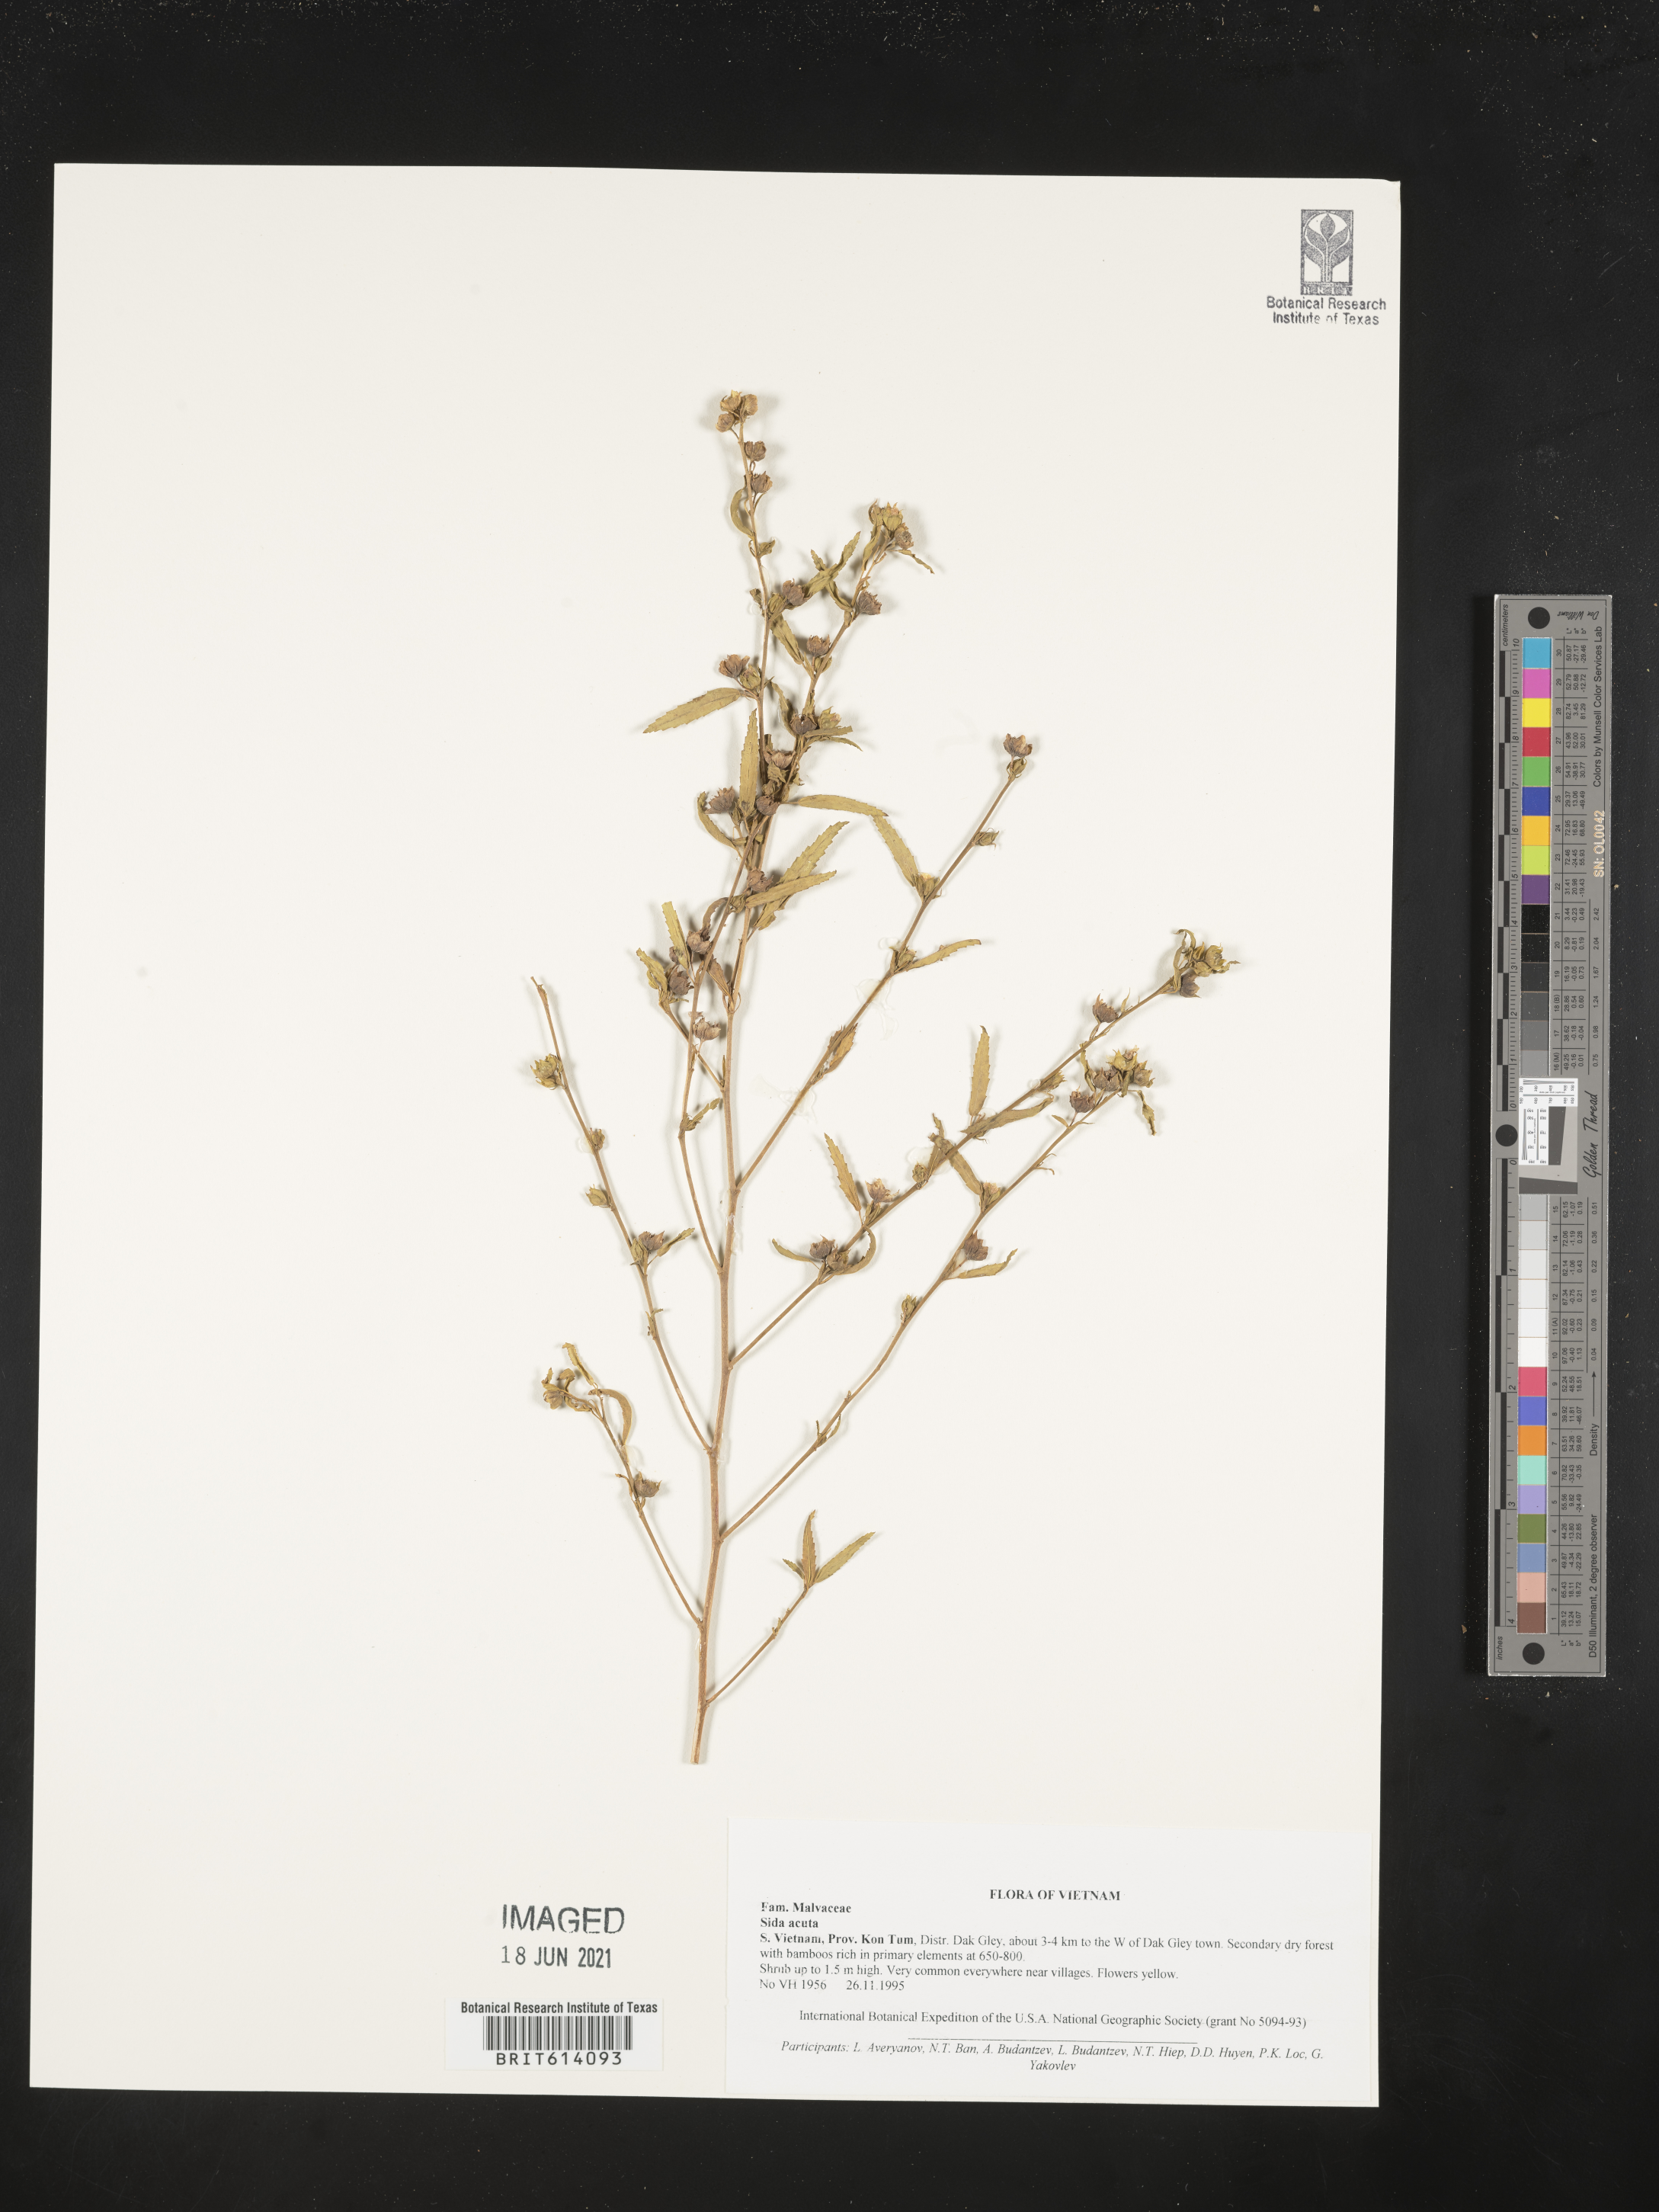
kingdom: Plantae
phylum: Tracheophyta
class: Magnoliopsida
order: Malvales
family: Malvaceae
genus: Sida
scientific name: Sida acuta
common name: Common wireweed
